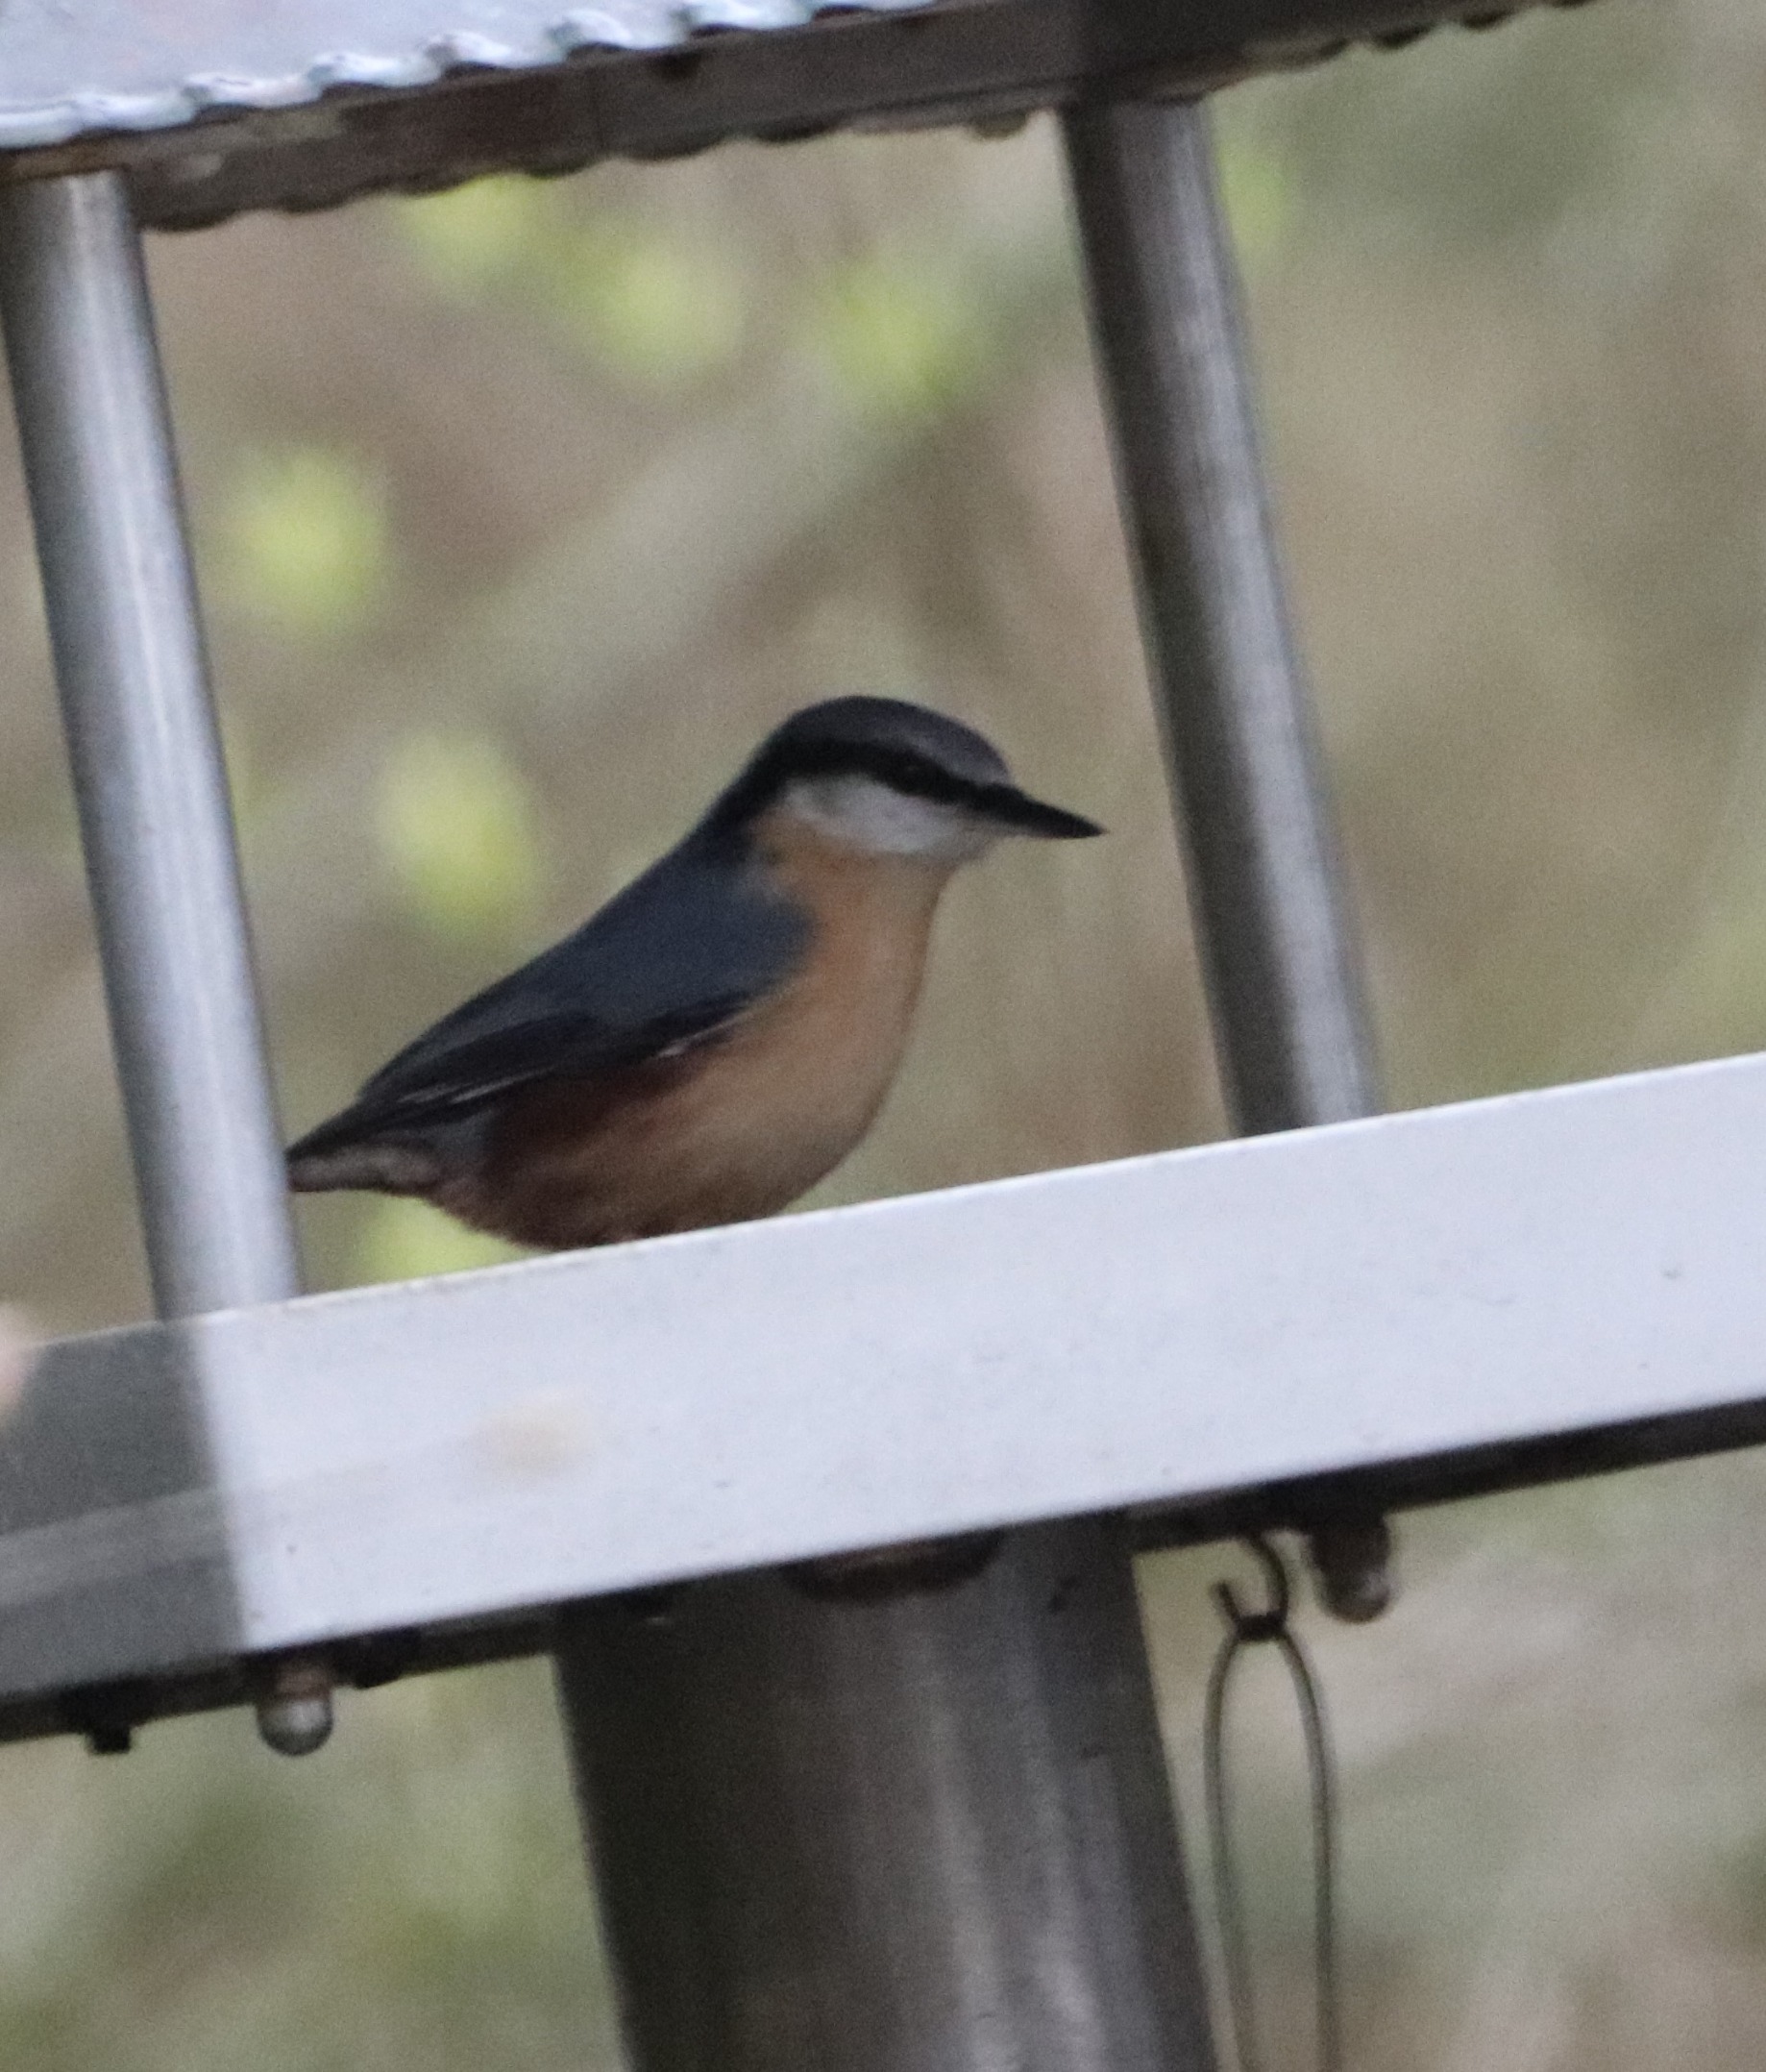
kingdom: Animalia
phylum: Chordata
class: Aves
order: Passeriformes
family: Sittidae
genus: Sitta
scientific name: Sitta europaea
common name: Spætmejse
